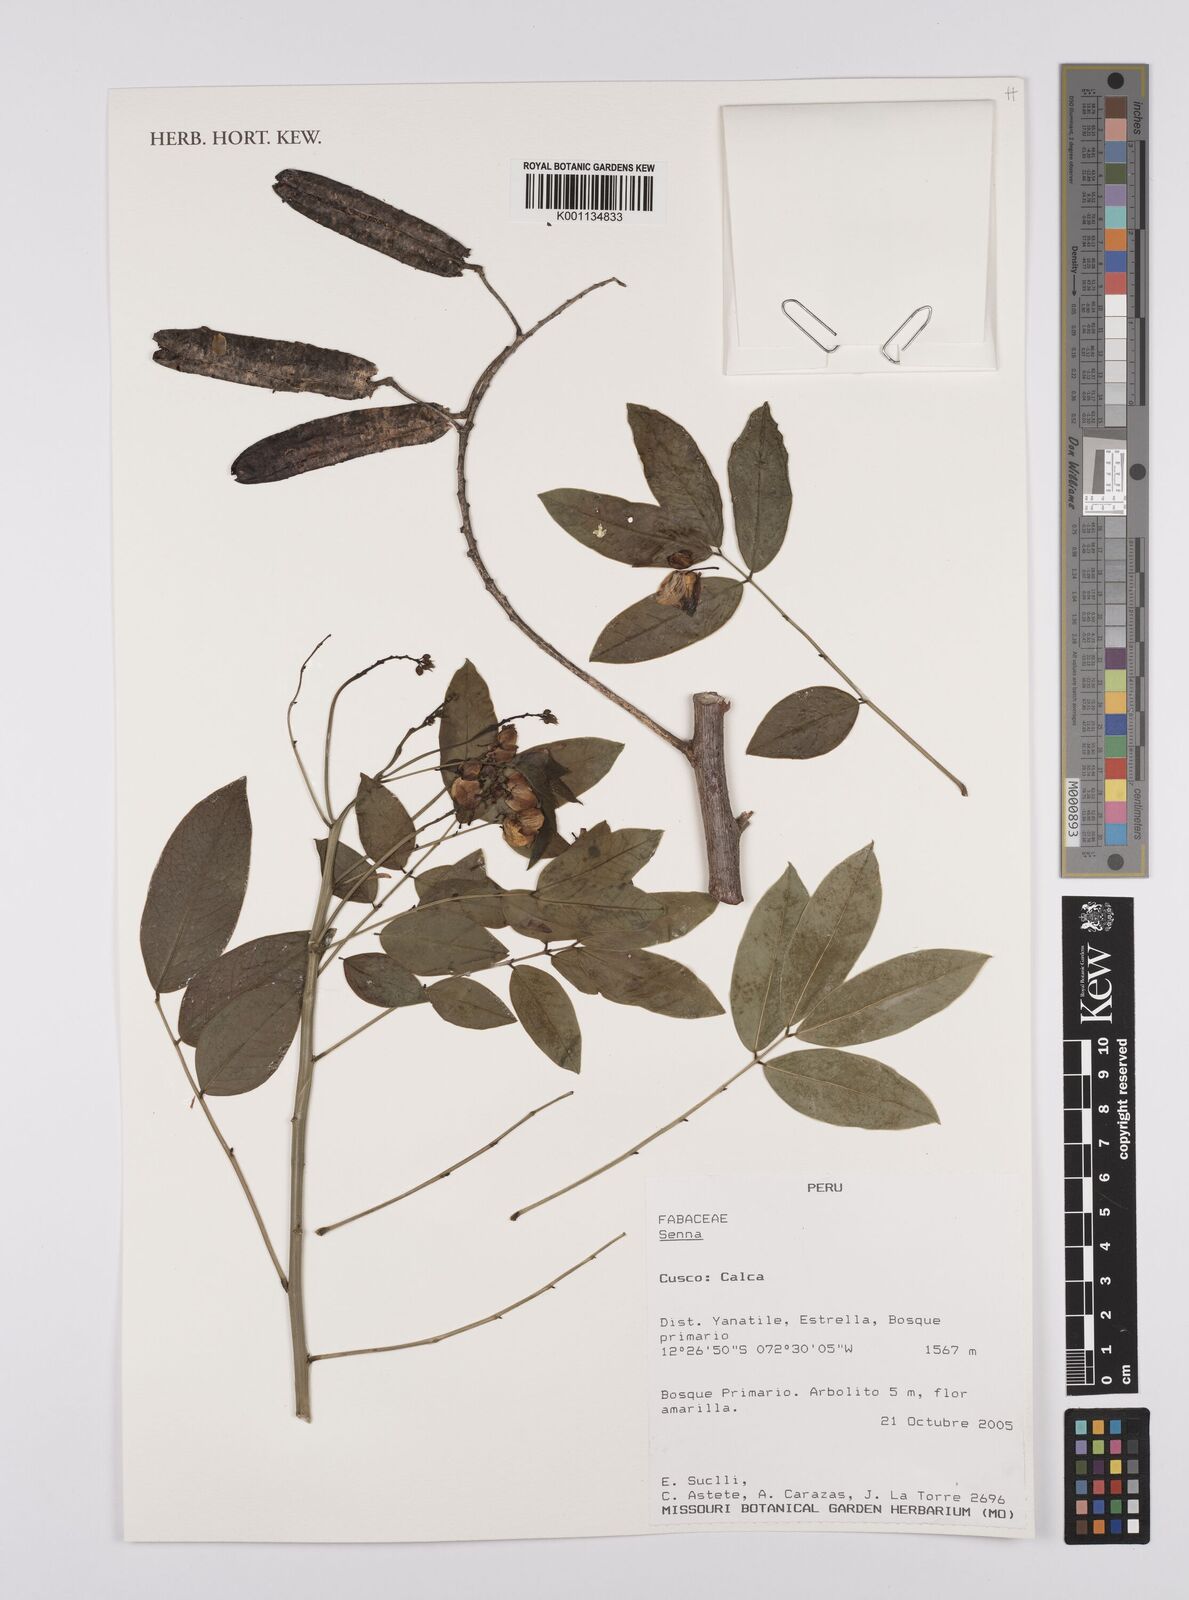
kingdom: Plantae
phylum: Tracheophyta
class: Magnoliopsida
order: Fabales
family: Fabaceae
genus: Senna
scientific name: Senna
